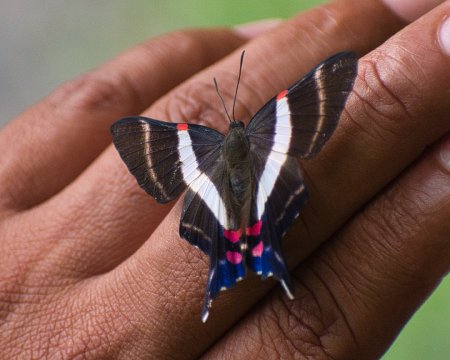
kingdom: Animalia
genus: Ancyluris
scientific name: Ancyluris jurgensenii
